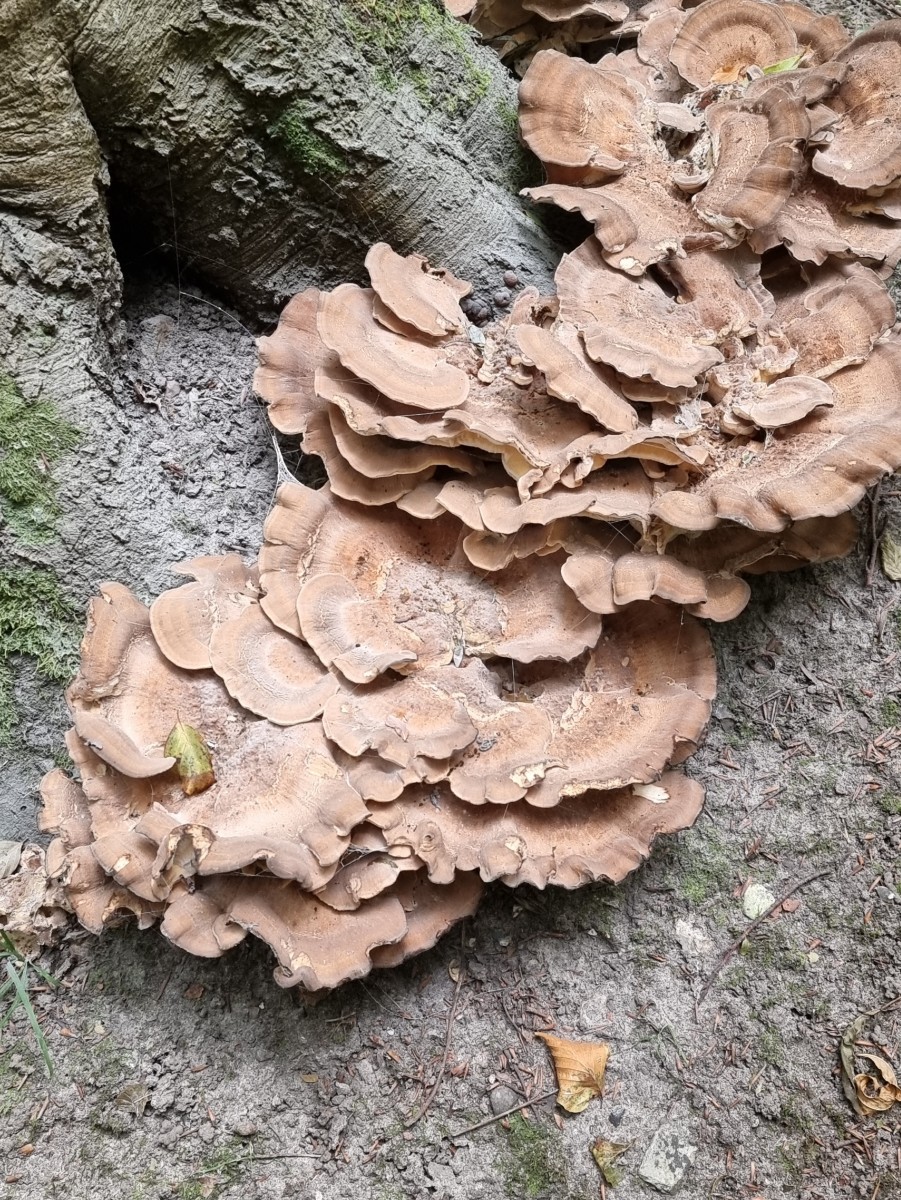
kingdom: Fungi
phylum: Basidiomycota
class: Agaricomycetes
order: Polyporales
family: Meripilaceae
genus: Meripilus
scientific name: Meripilus giganteus
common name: kæmpeporesvamp
